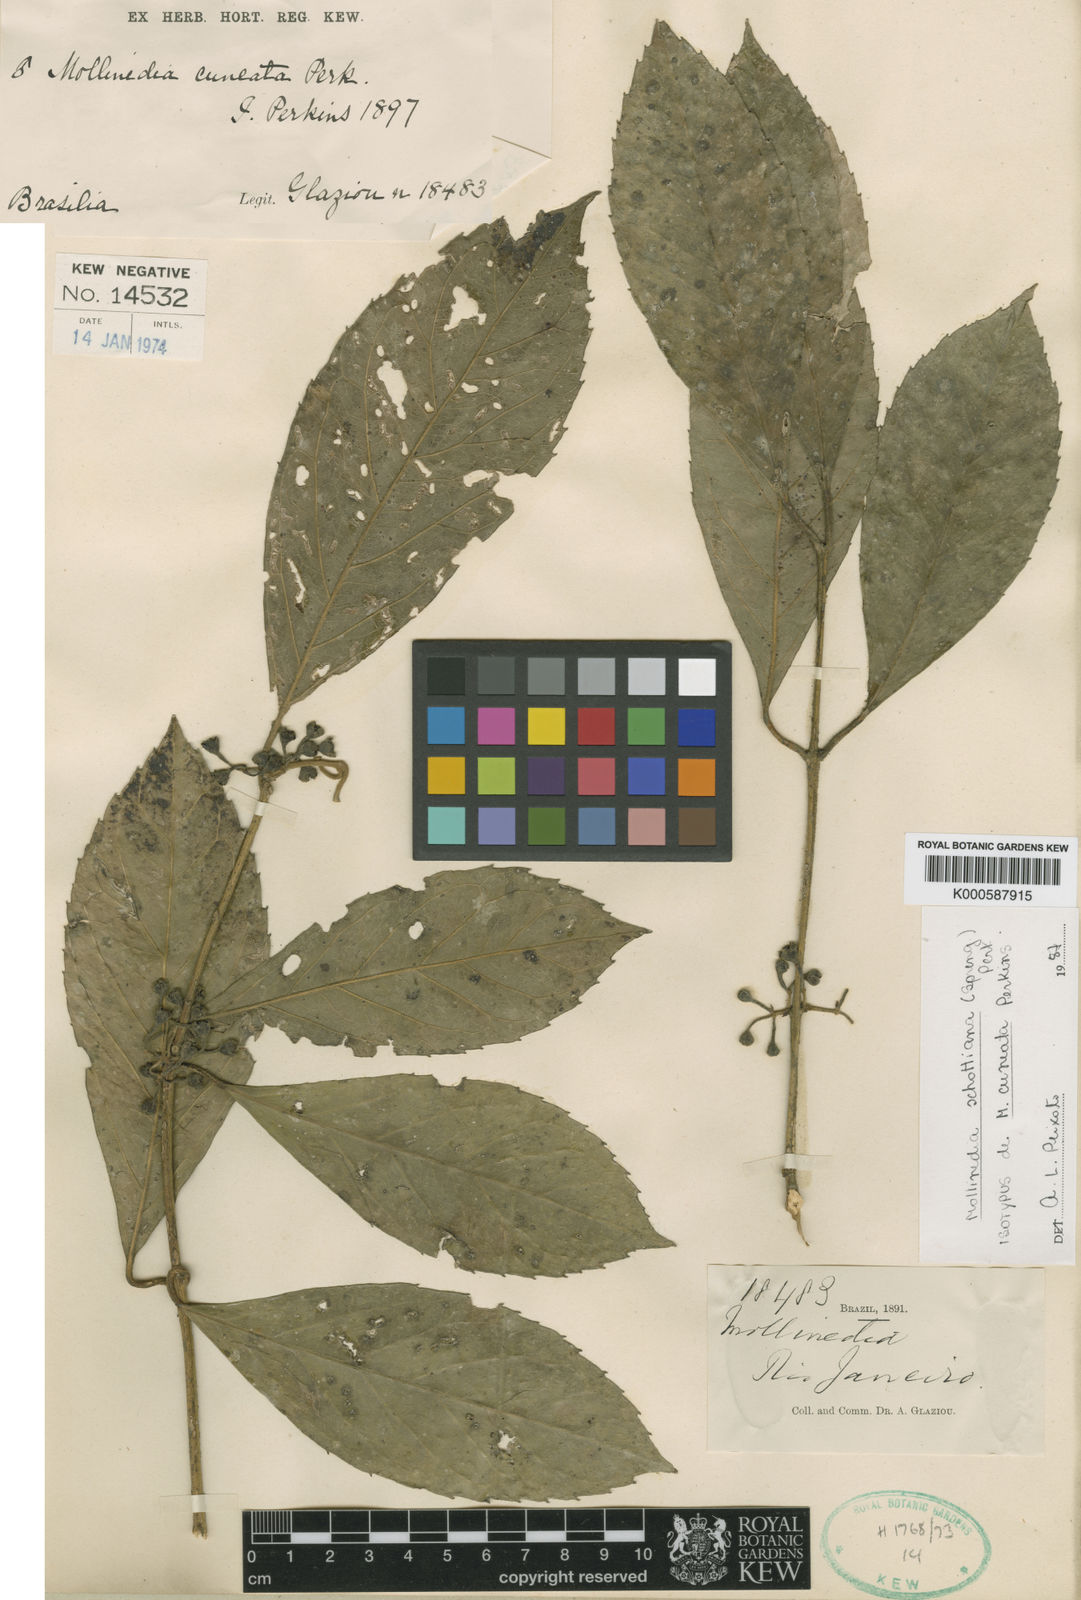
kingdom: Plantae
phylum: Tracheophyta
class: Magnoliopsida
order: Laurales
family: Monimiaceae
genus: Mollinedia
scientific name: Mollinedia umbellata
